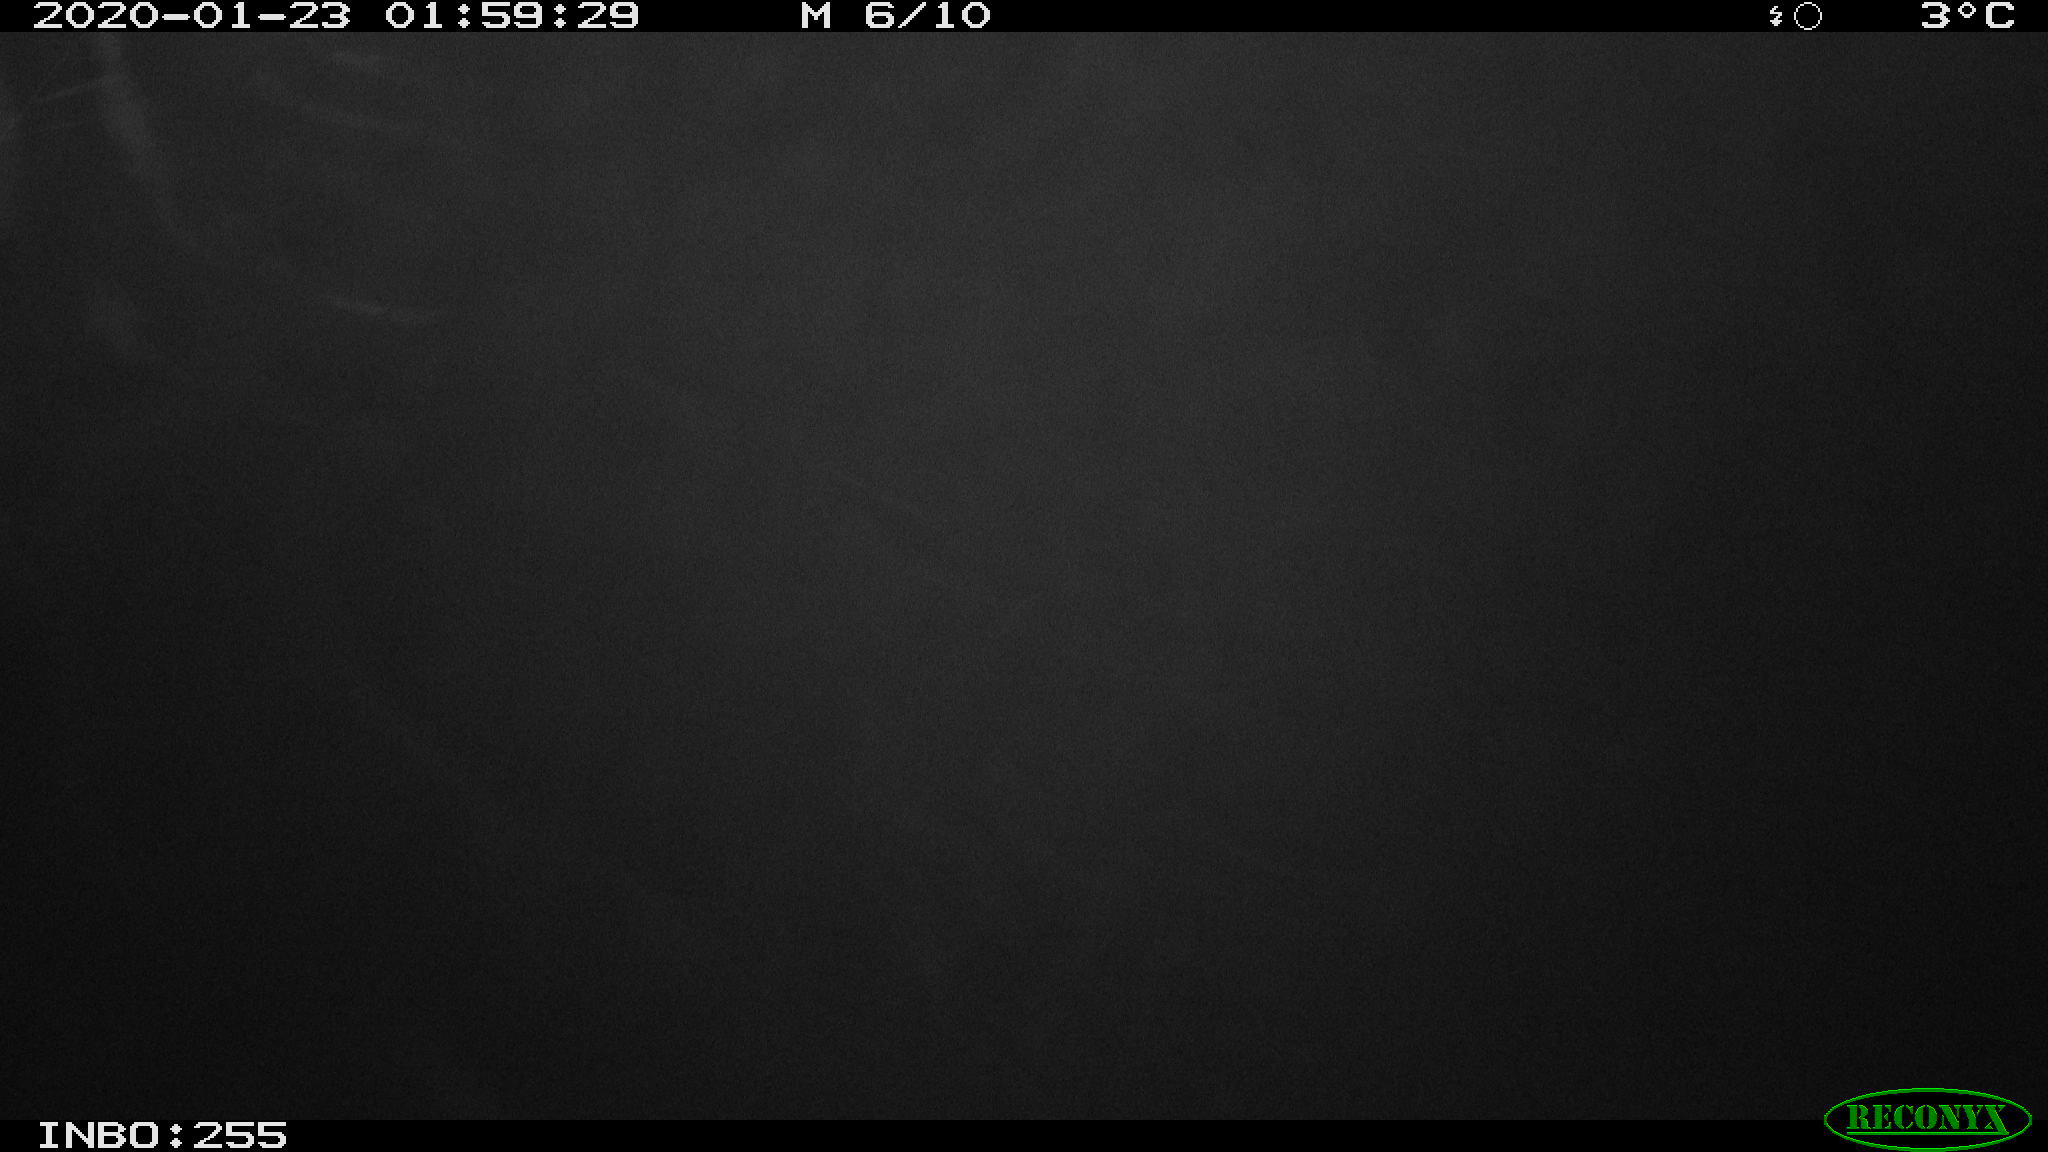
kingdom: Animalia
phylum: Chordata
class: Mammalia
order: Rodentia
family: Cricetidae
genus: Ondatra
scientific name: Ondatra zibethicus
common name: Muskrat
